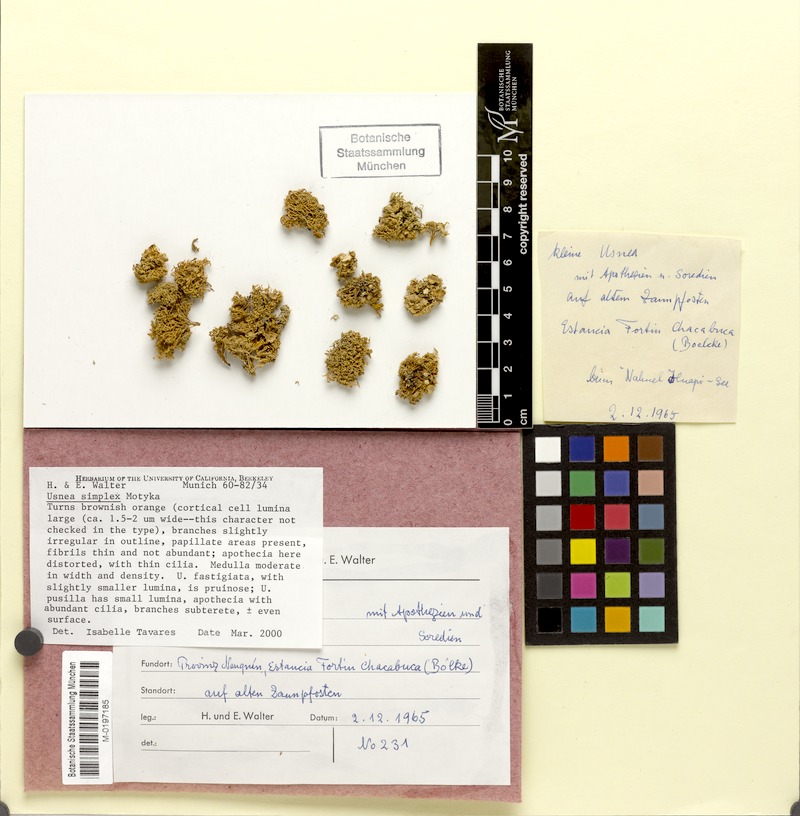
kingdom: Fungi
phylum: Ascomycota
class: Lecanoromycetes
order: Lecanorales
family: Parmeliaceae
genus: Usnea
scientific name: Usnea
